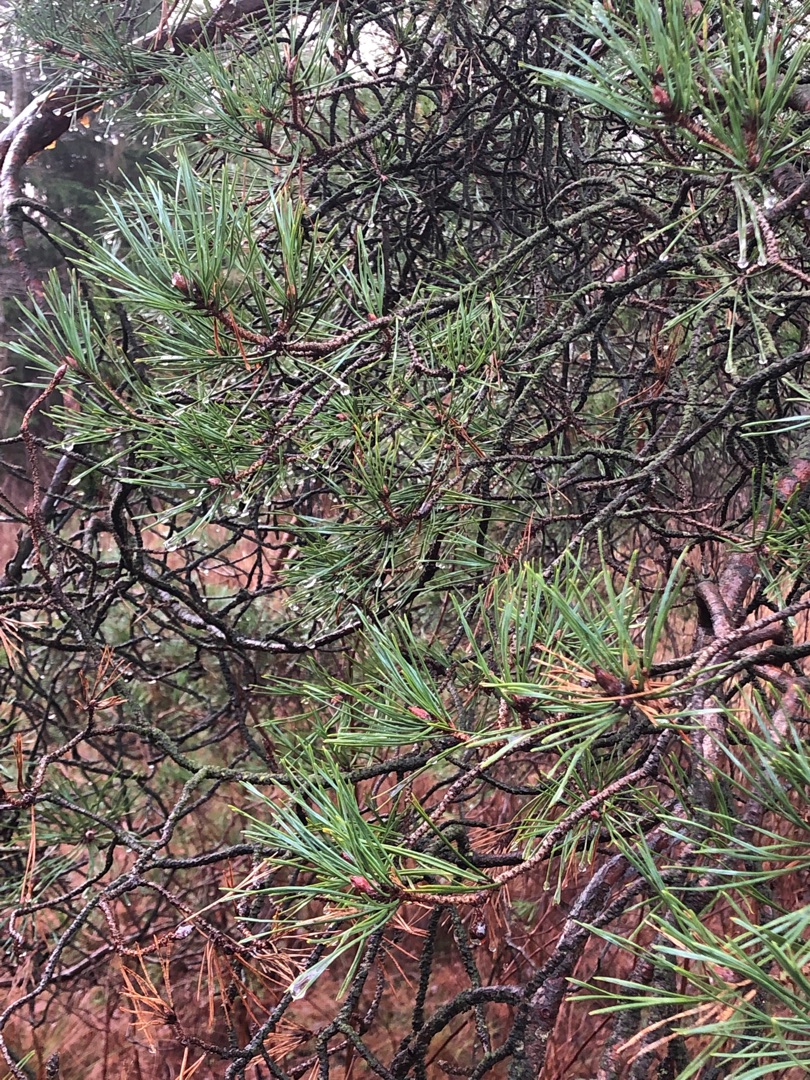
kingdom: Plantae
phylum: Tracheophyta
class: Pinopsida
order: Pinales
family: Pinaceae
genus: Pinus
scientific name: Pinus sylvestris
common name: Skov-fyr
